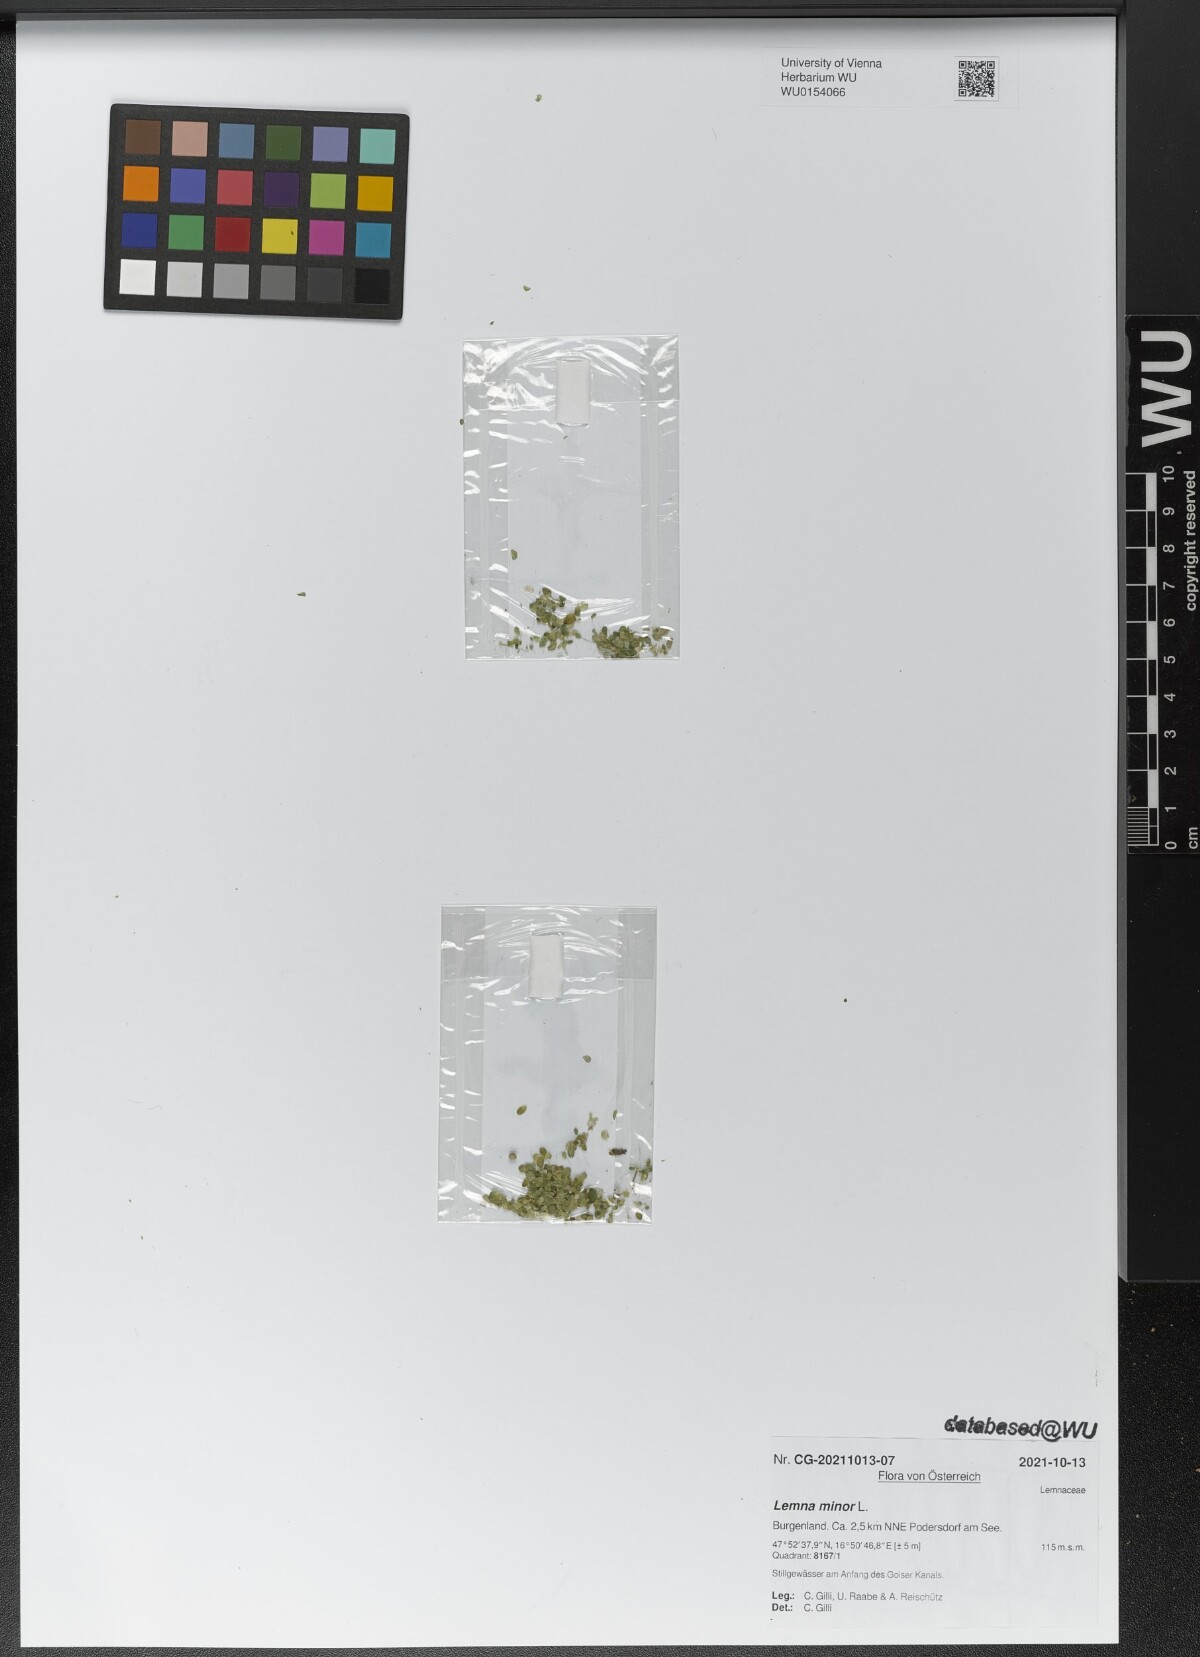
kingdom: Plantae
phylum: Tracheophyta
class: Liliopsida
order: Alismatales
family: Araceae
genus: Lemna
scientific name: Lemna minor
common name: Common duckweed
